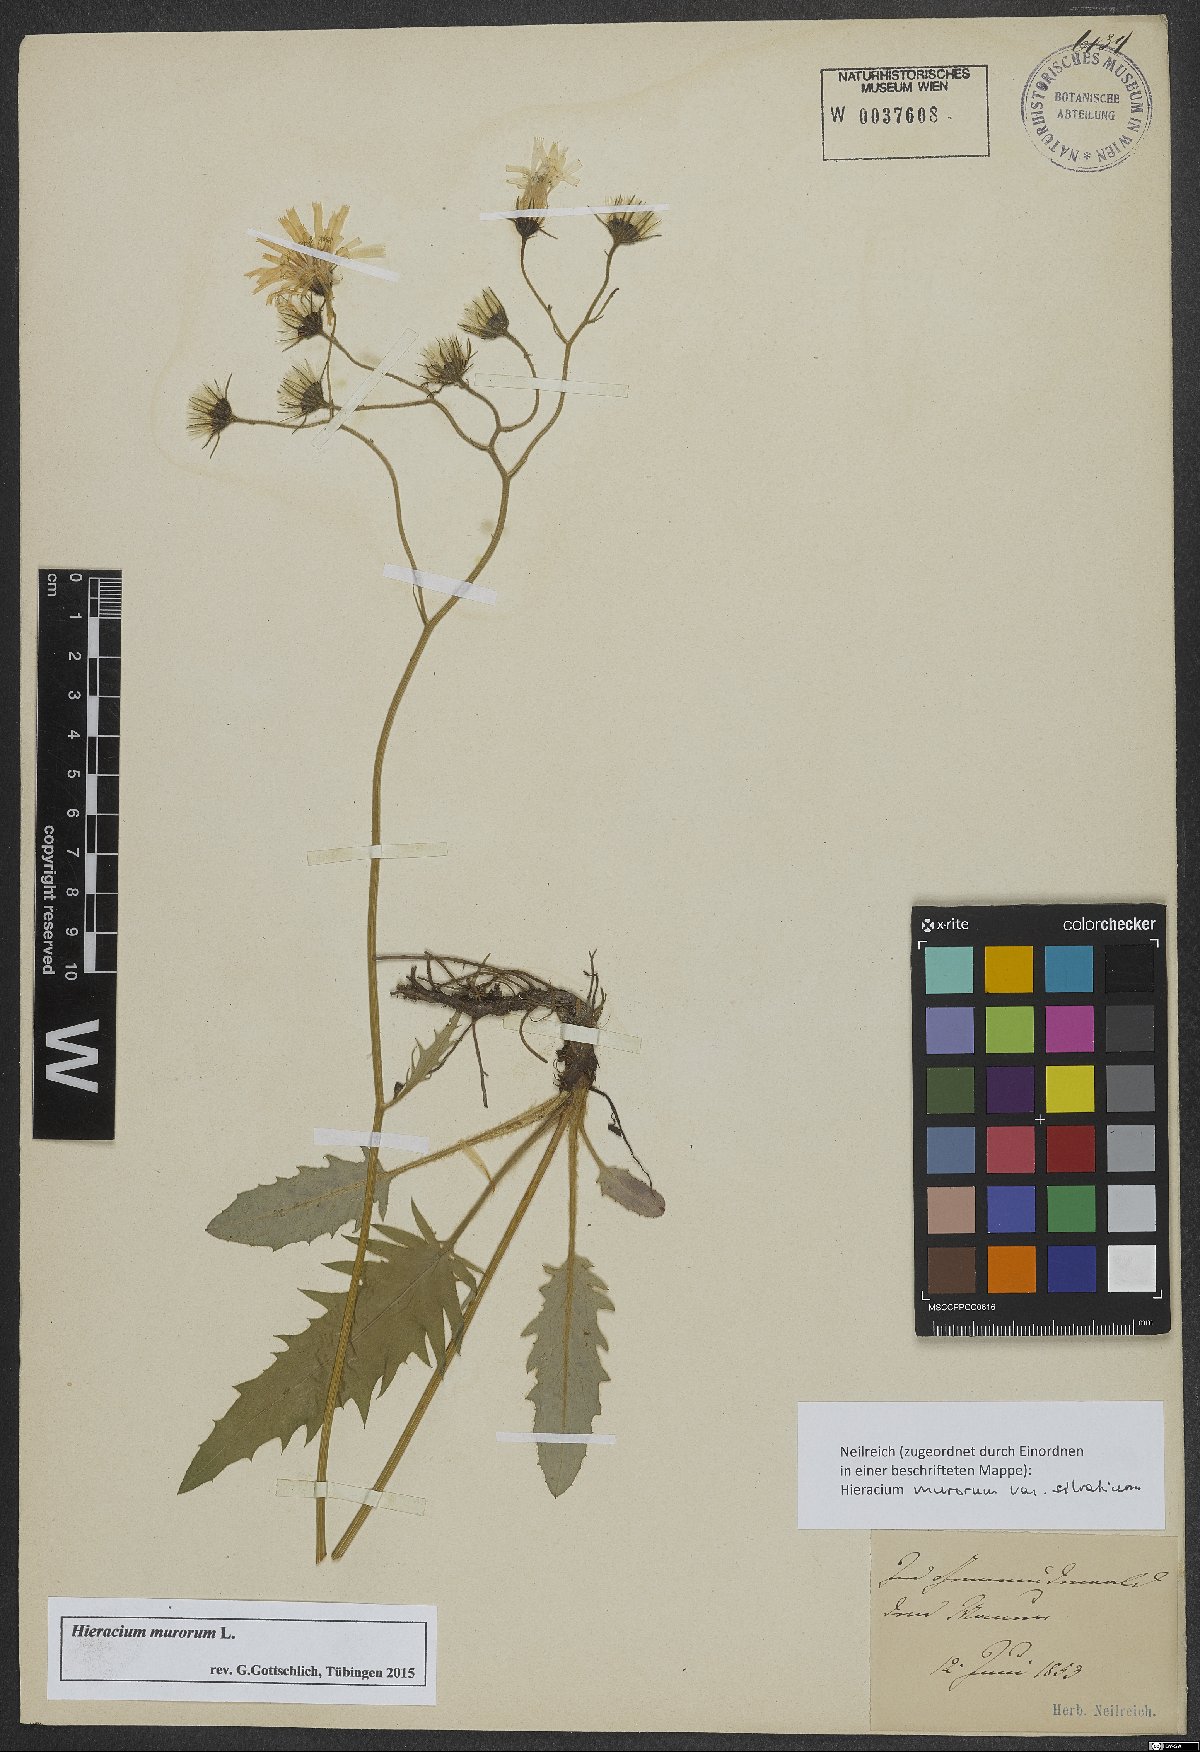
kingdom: Plantae
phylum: Tracheophyta
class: Magnoliopsida
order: Asterales
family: Asteraceae
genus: Hieracium
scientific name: Hieracium murorum
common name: Wall hawkweed
